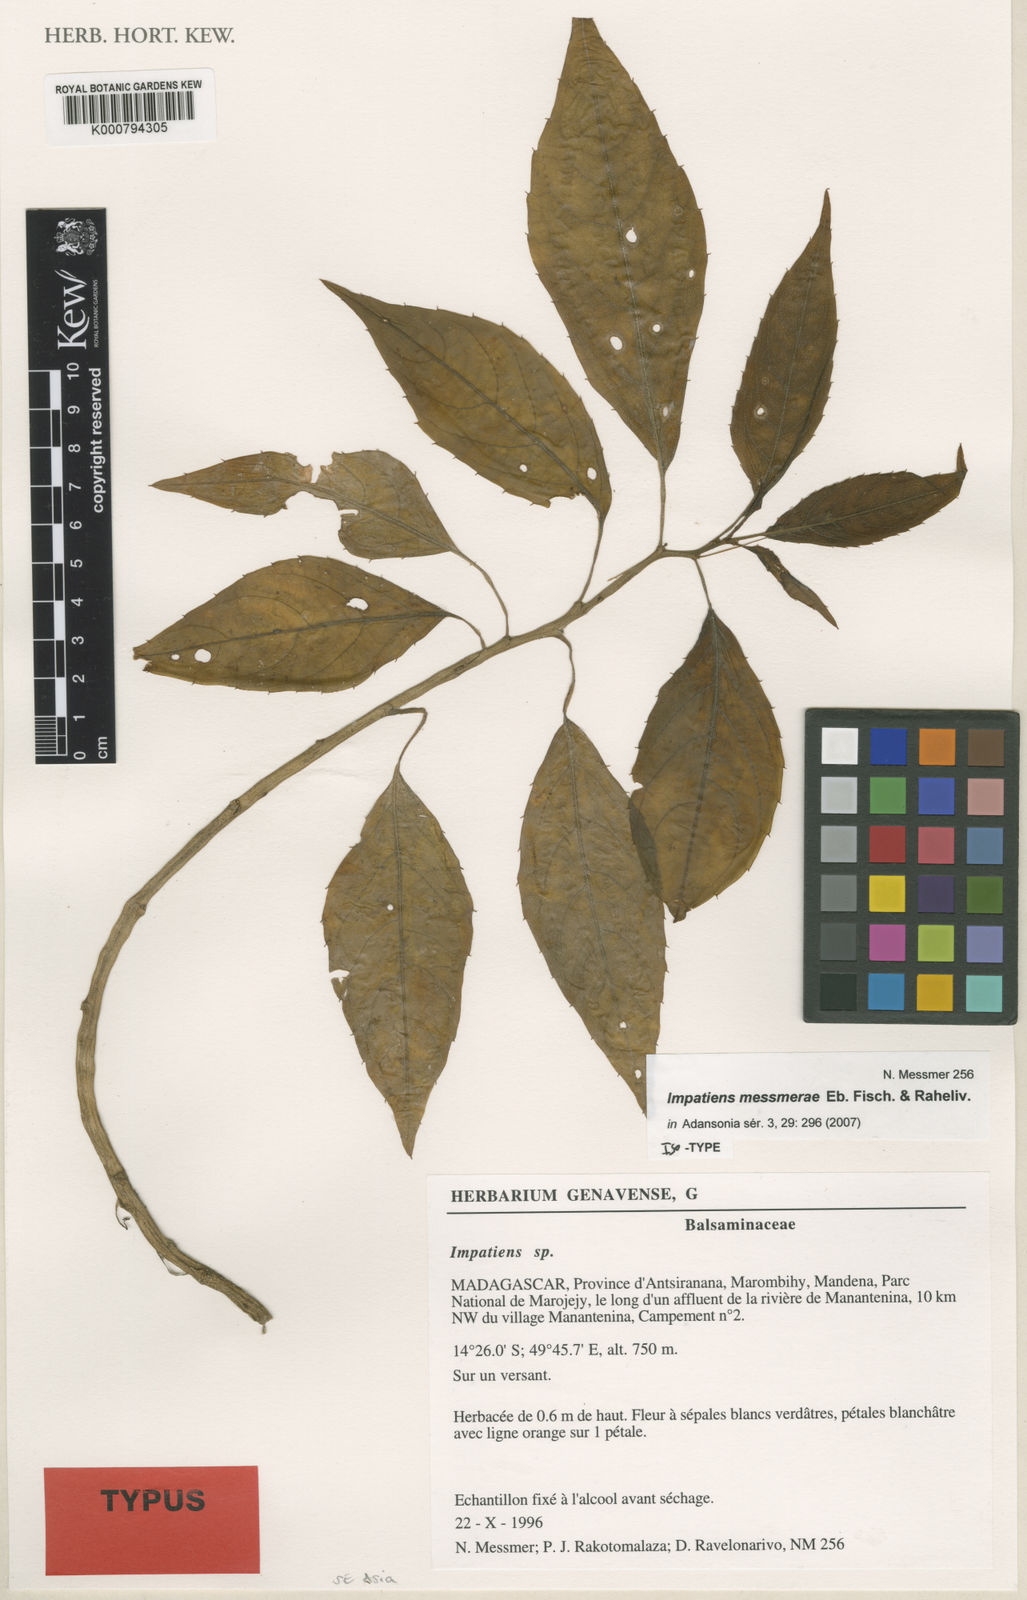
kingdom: Plantae
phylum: Tracheophyta
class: Magnoliopsida
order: Ericales
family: Balsaminaceae
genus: Impatiens
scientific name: Impatiens messmerae
